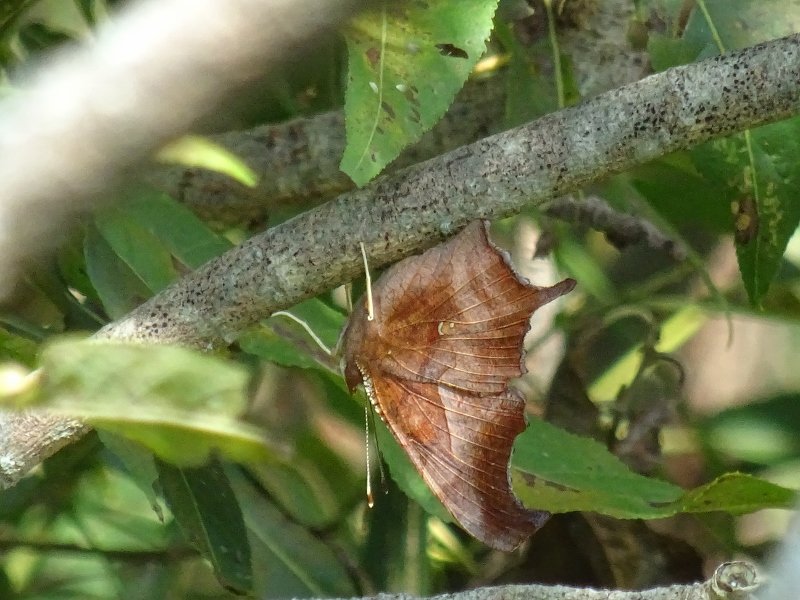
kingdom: Animalia
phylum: Arthropoda
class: Insecta
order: Lepidoptera
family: Nymphalidae
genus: Polygonia
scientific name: Polygonia interrogationis
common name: Question Mark
